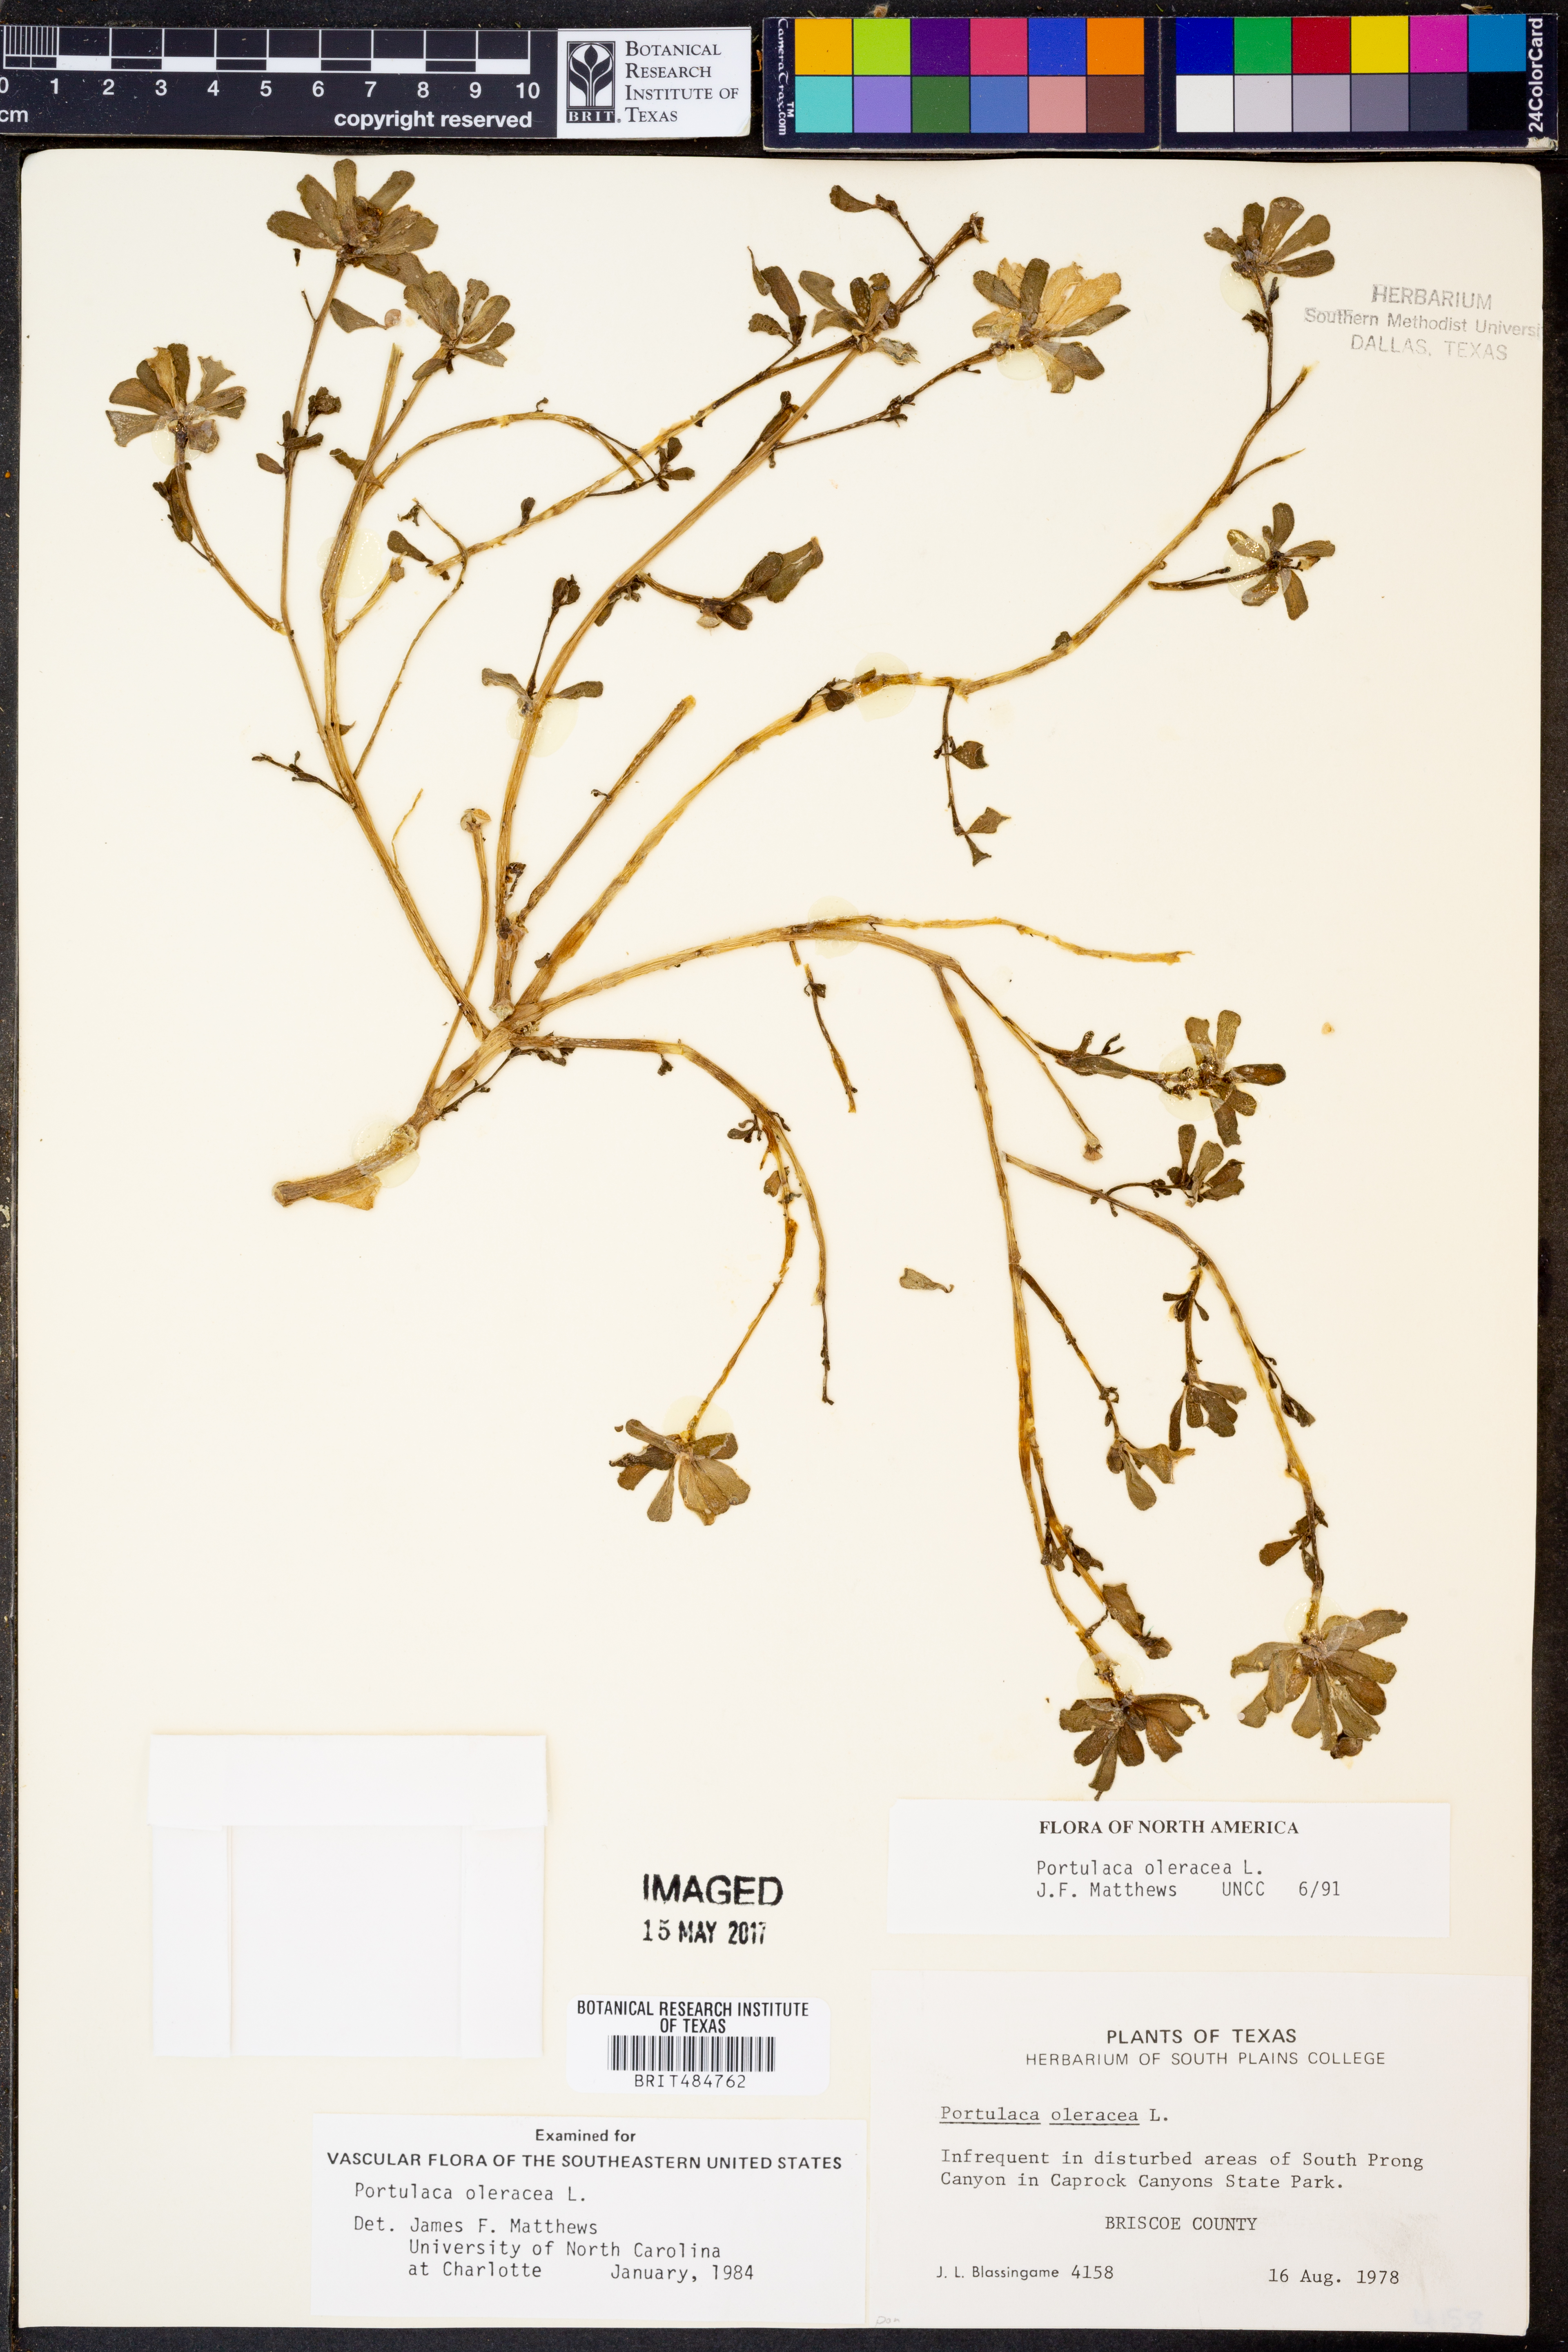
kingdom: Plantae
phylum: Tracheophyta
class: Magnoliopsida
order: Caryophyllales
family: Portulacaceae
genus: Portulaca
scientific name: Portulaca oleracea
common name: Common purslane
